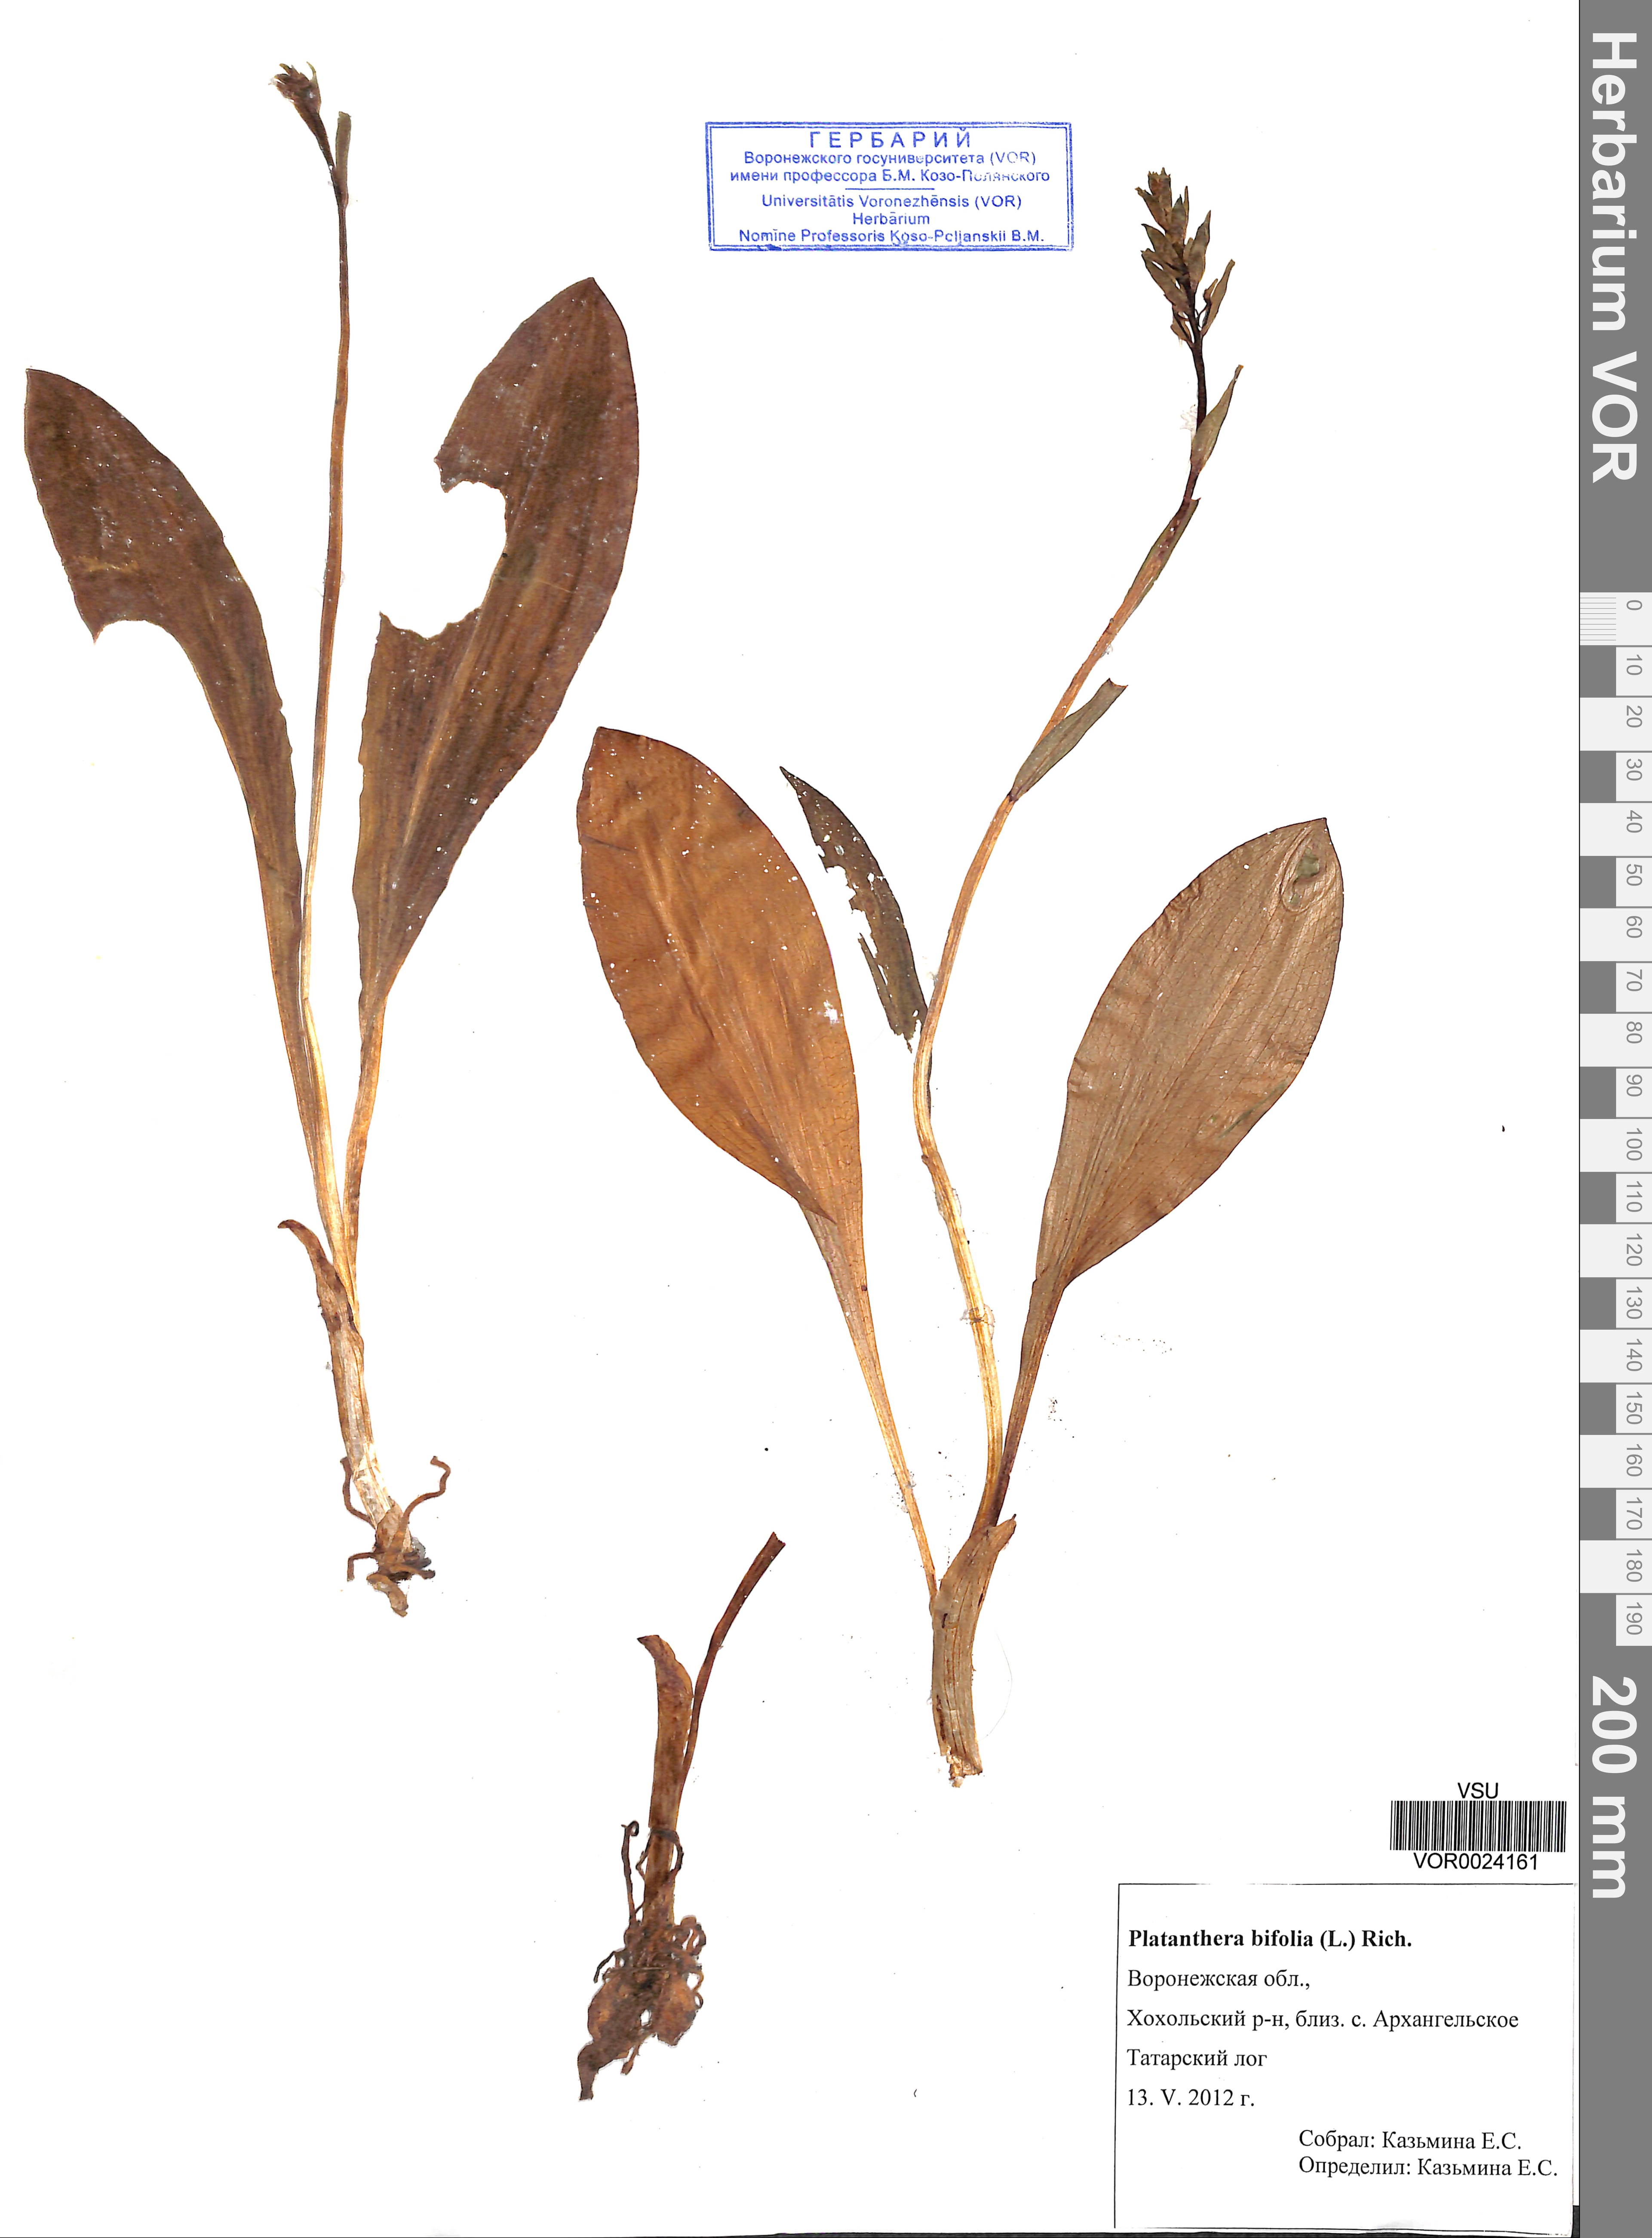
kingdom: Plantae
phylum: Tracheophyta
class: Liliopsida
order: Asparagales
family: Orchidaceae
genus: Platanthera
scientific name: Platanthera bifolia
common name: Lesser butterfly-orchid
